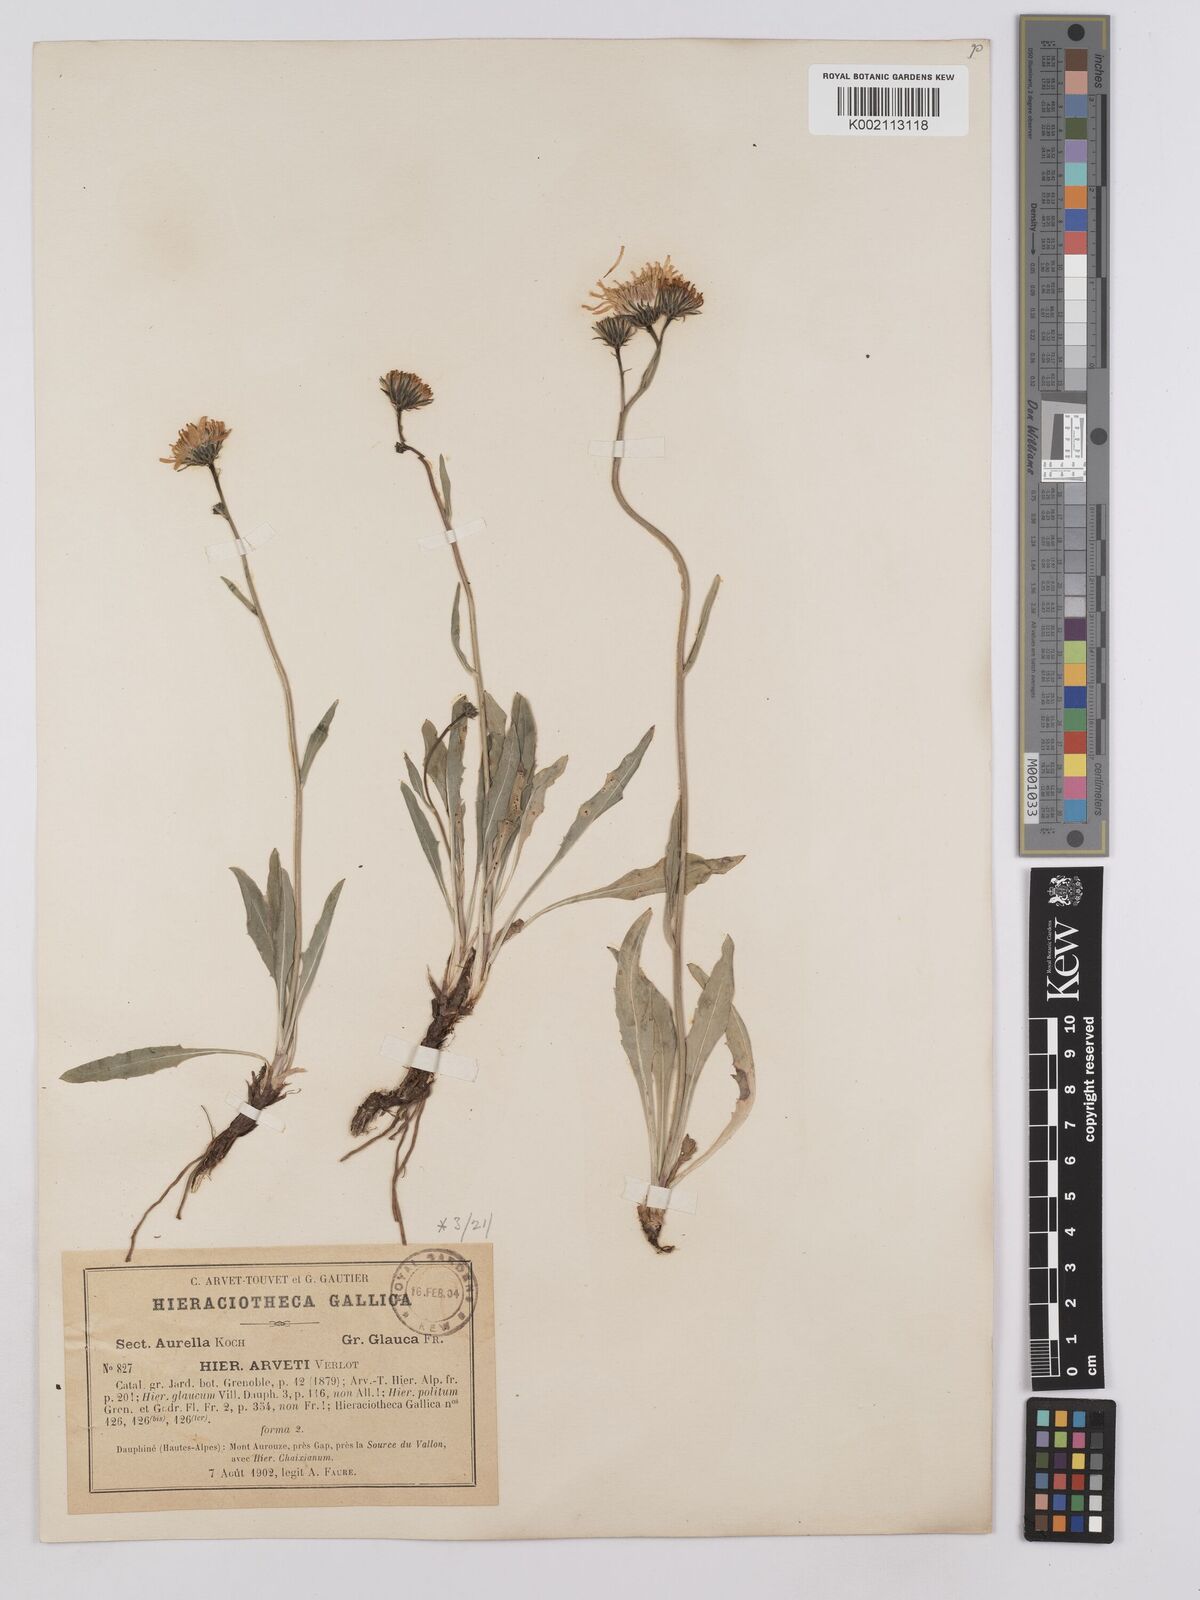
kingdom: Plantae
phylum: Tracheophyta
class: Magnoliopsida
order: Asterales
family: Asteraceae
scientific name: Asteraceae
